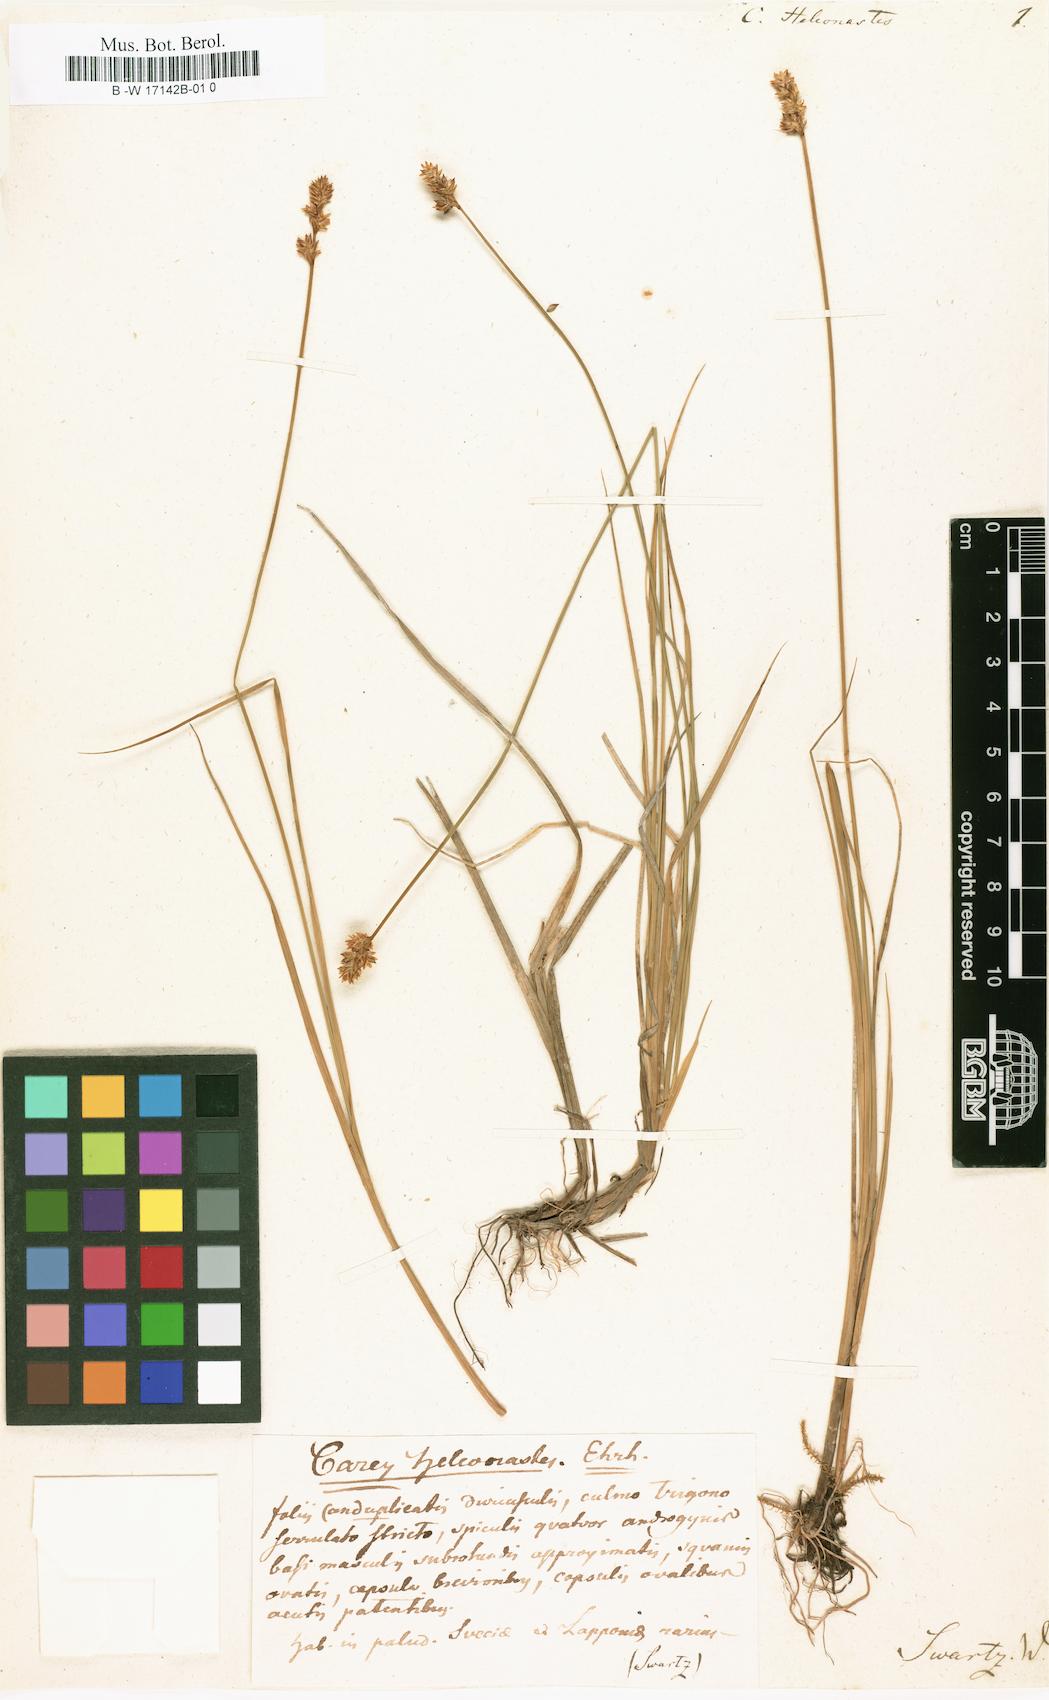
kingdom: Plantae
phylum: Tracheophyta
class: Liliopsida
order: Poales
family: Cyperaceae
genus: Carex
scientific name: Carex heleonastes
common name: Hudson bay sedge
